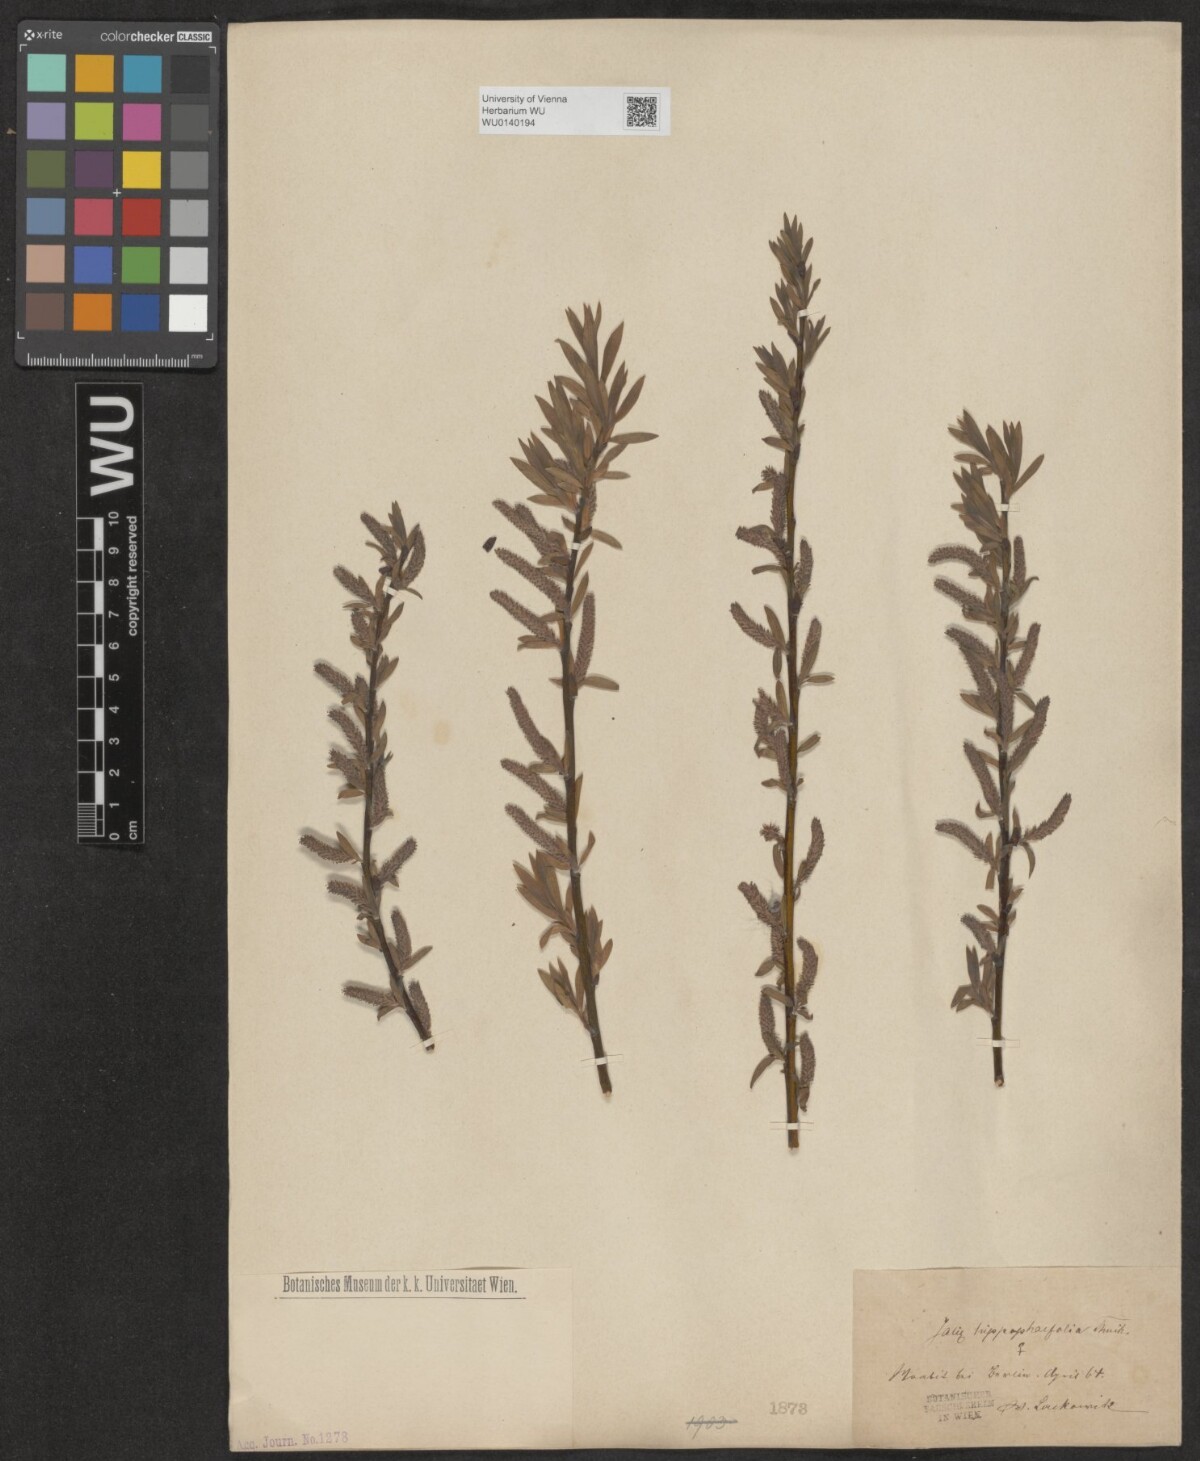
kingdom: Plantae
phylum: Tracheophyta
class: Magnoliopsida
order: Malpighiales
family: Salicaceae
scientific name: Salicaceae
